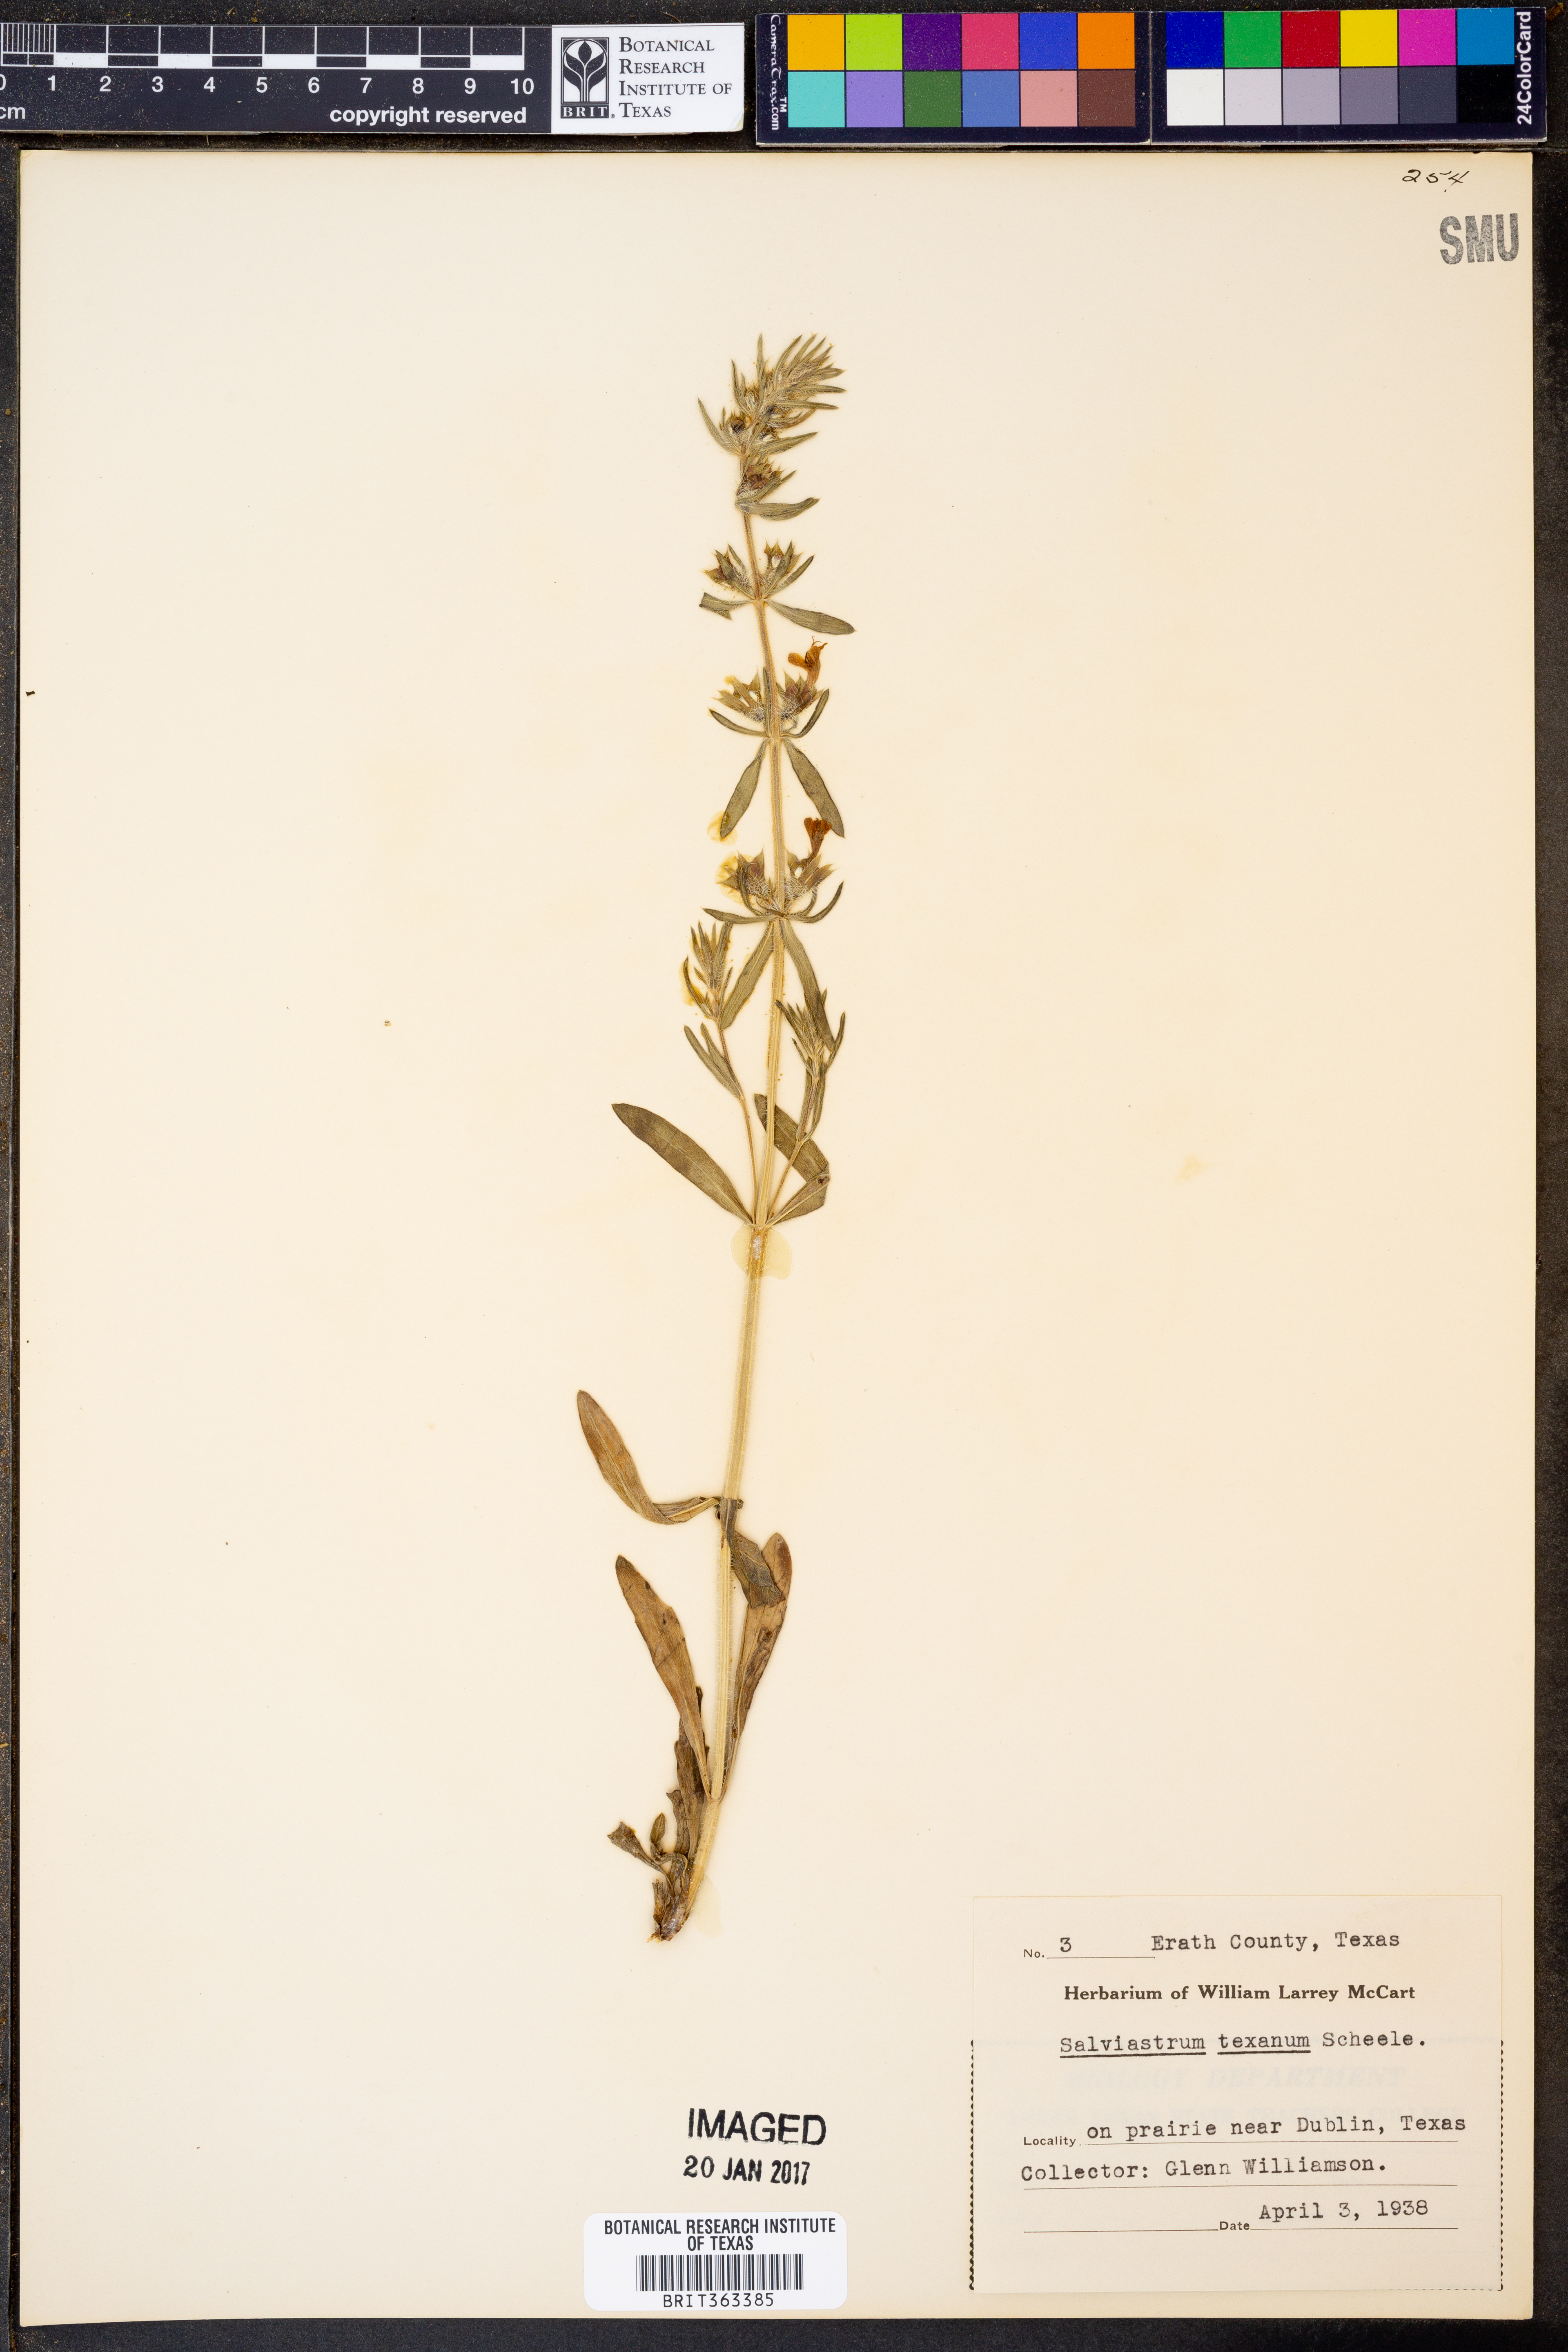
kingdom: Plantae
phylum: Tracheophyta
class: Magnoliopsida
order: Lamiales
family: Lamiaceae
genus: Salvia
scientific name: Salvia texana
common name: Texas sage
